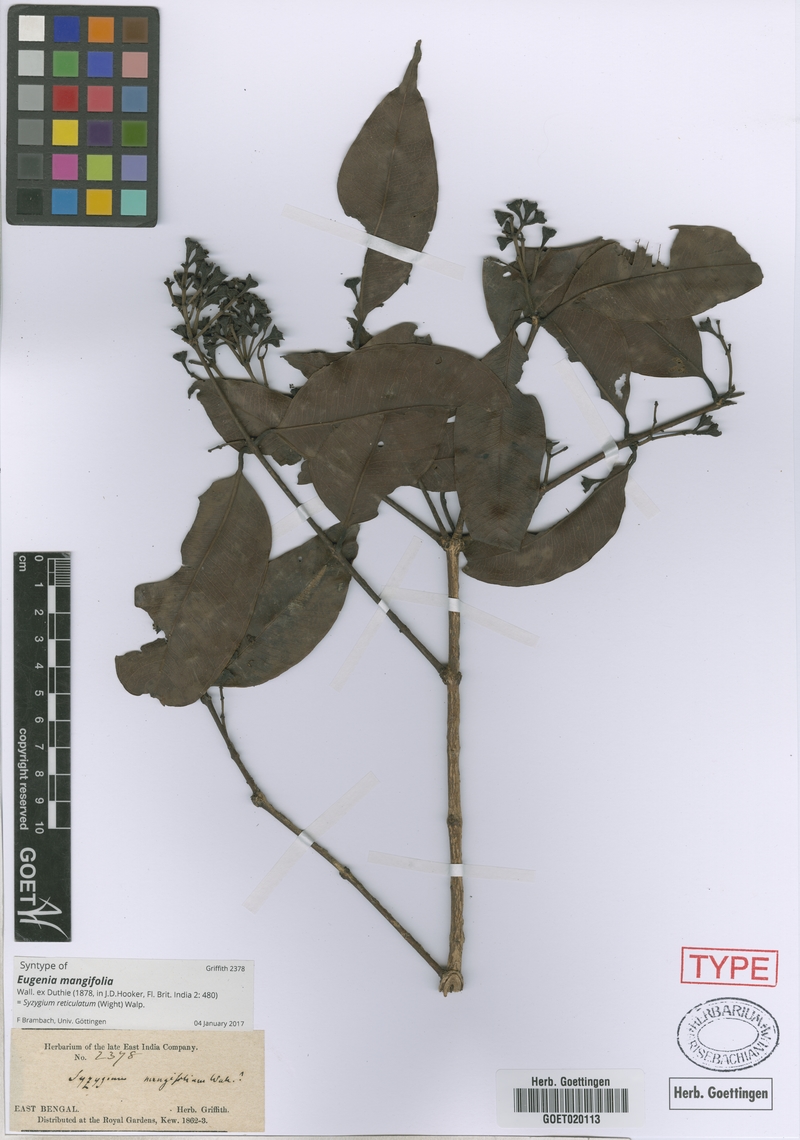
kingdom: Plantae
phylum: Tracheophyta
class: Magnoliopsida
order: Myrtales
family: Myrtaceae
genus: Syzygium
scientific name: Syzygium reticulatum
